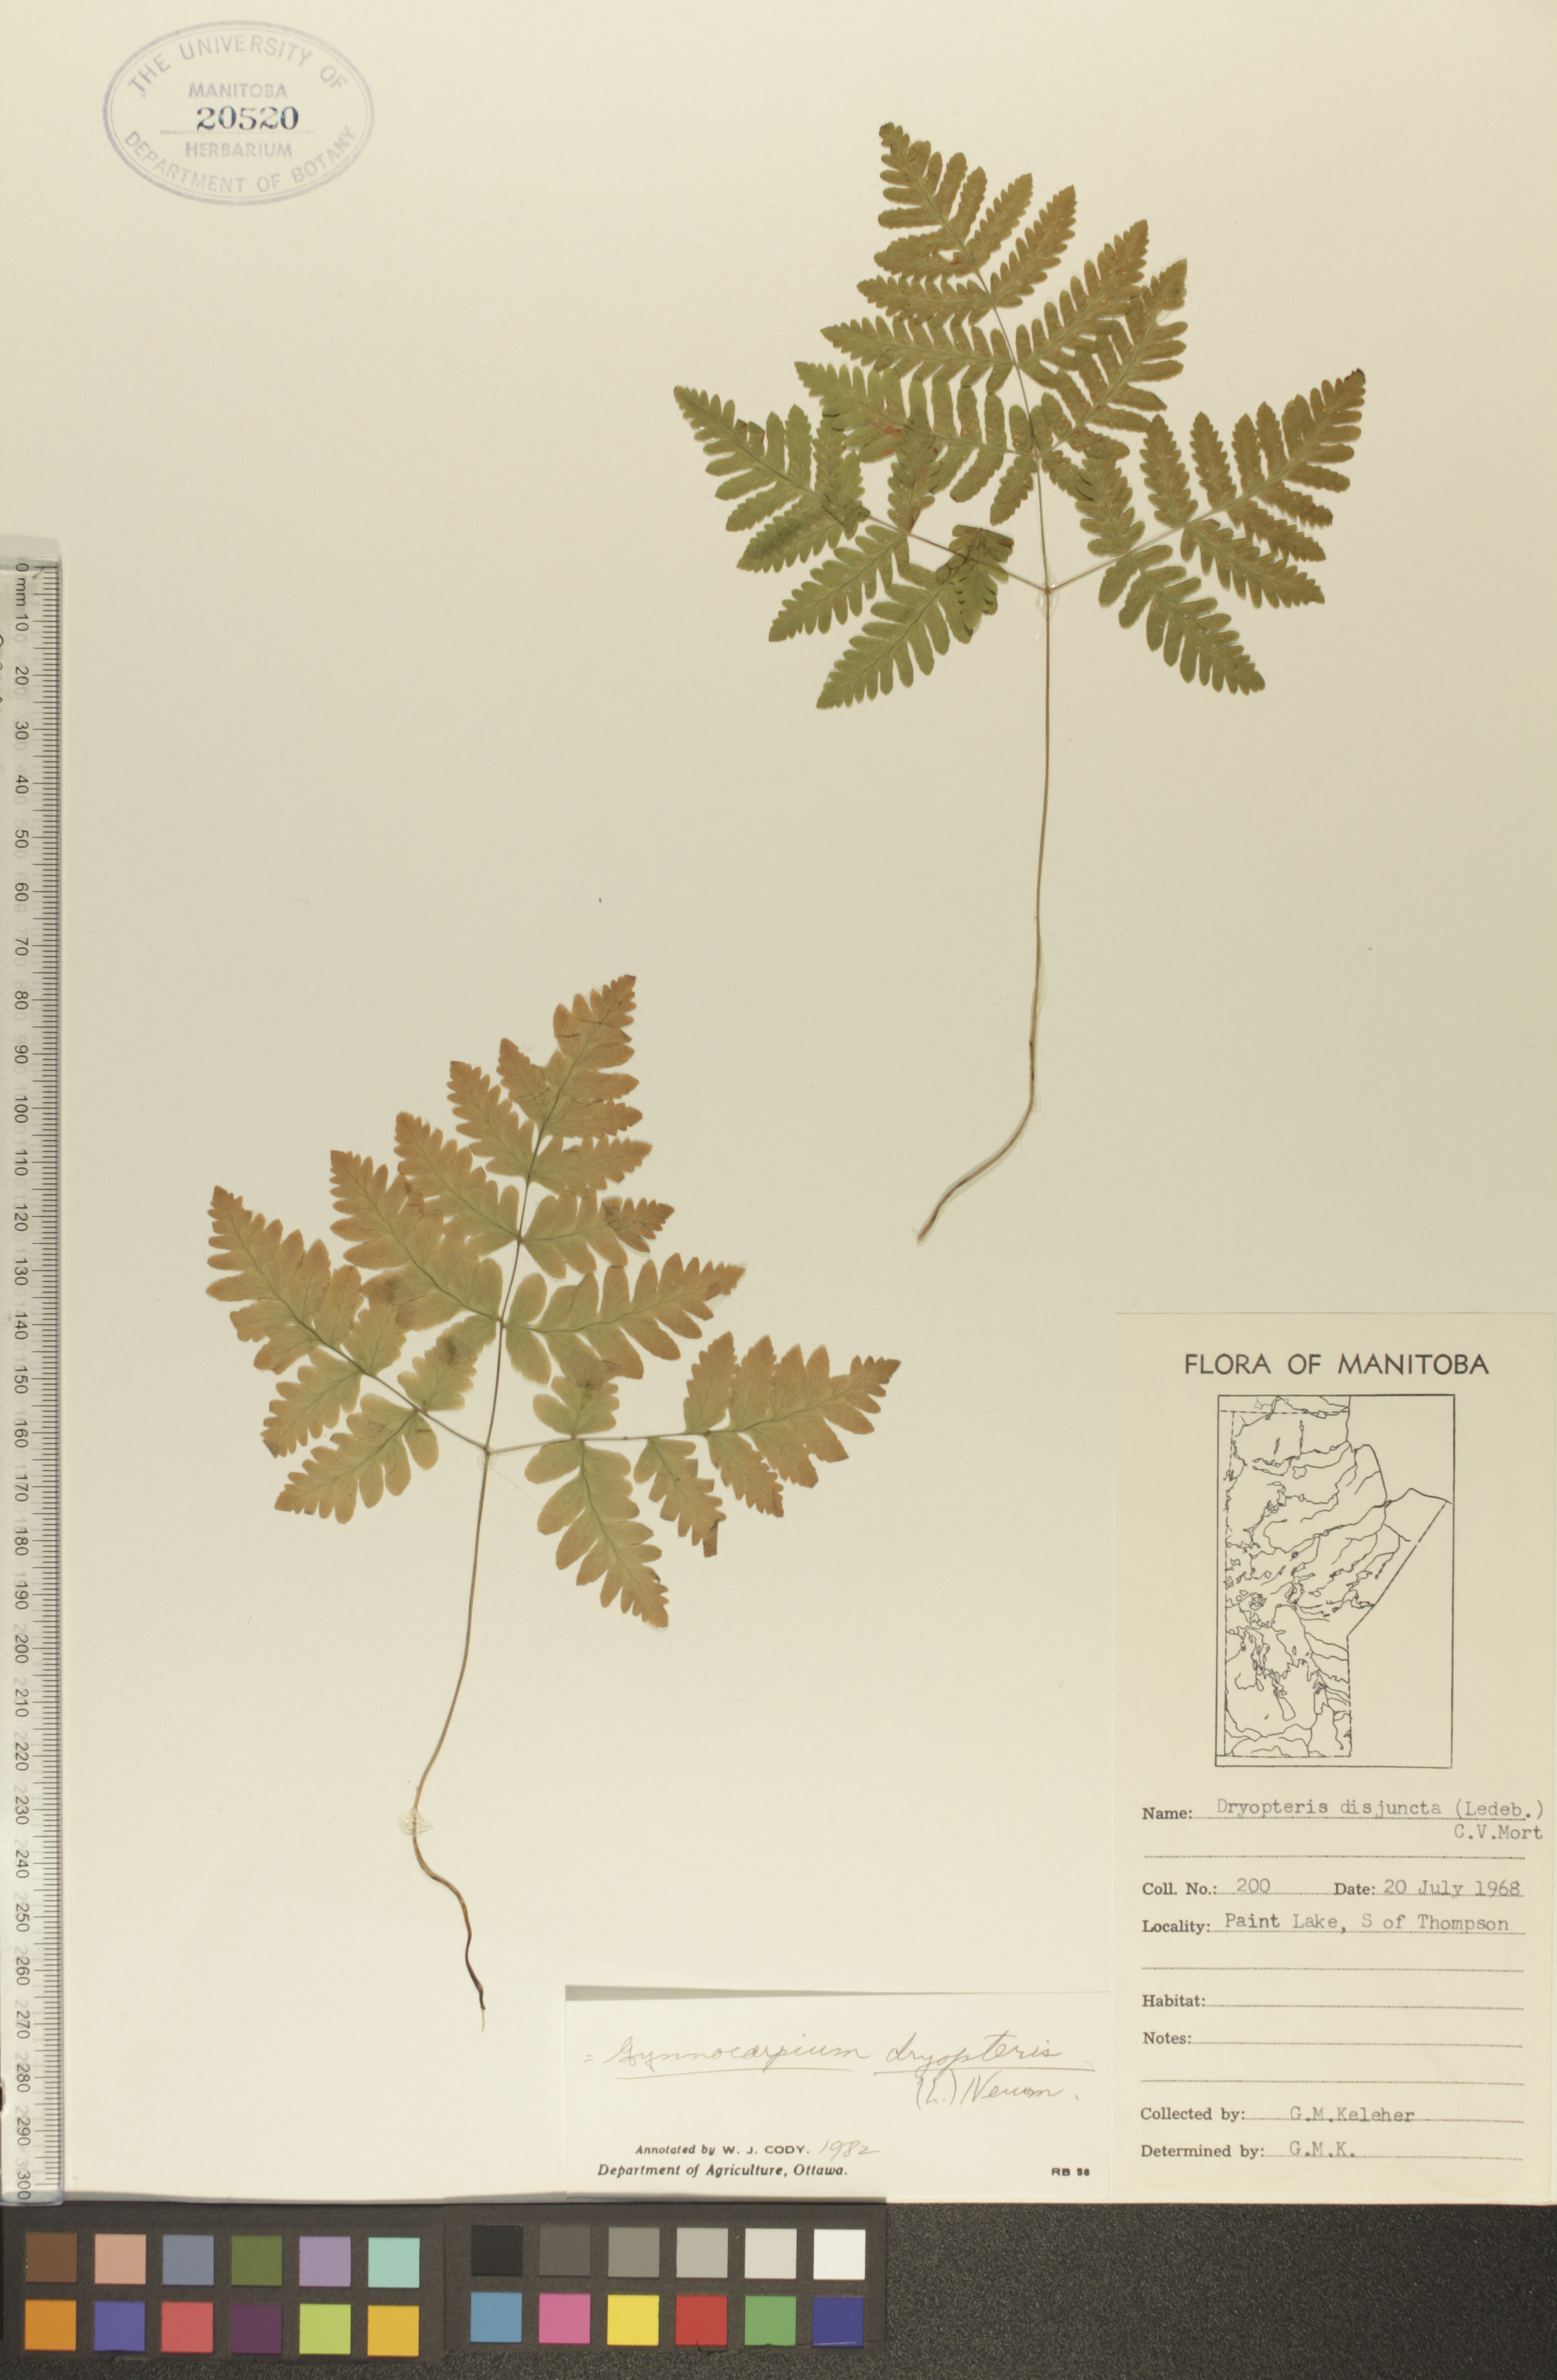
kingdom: Plantae
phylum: Tracheophyta
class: Polypodiopsida
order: Polypodiales
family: Cystopteridaceae
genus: Gymnocarpium
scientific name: Gymnocarpium dryopteris
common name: Oak fern
